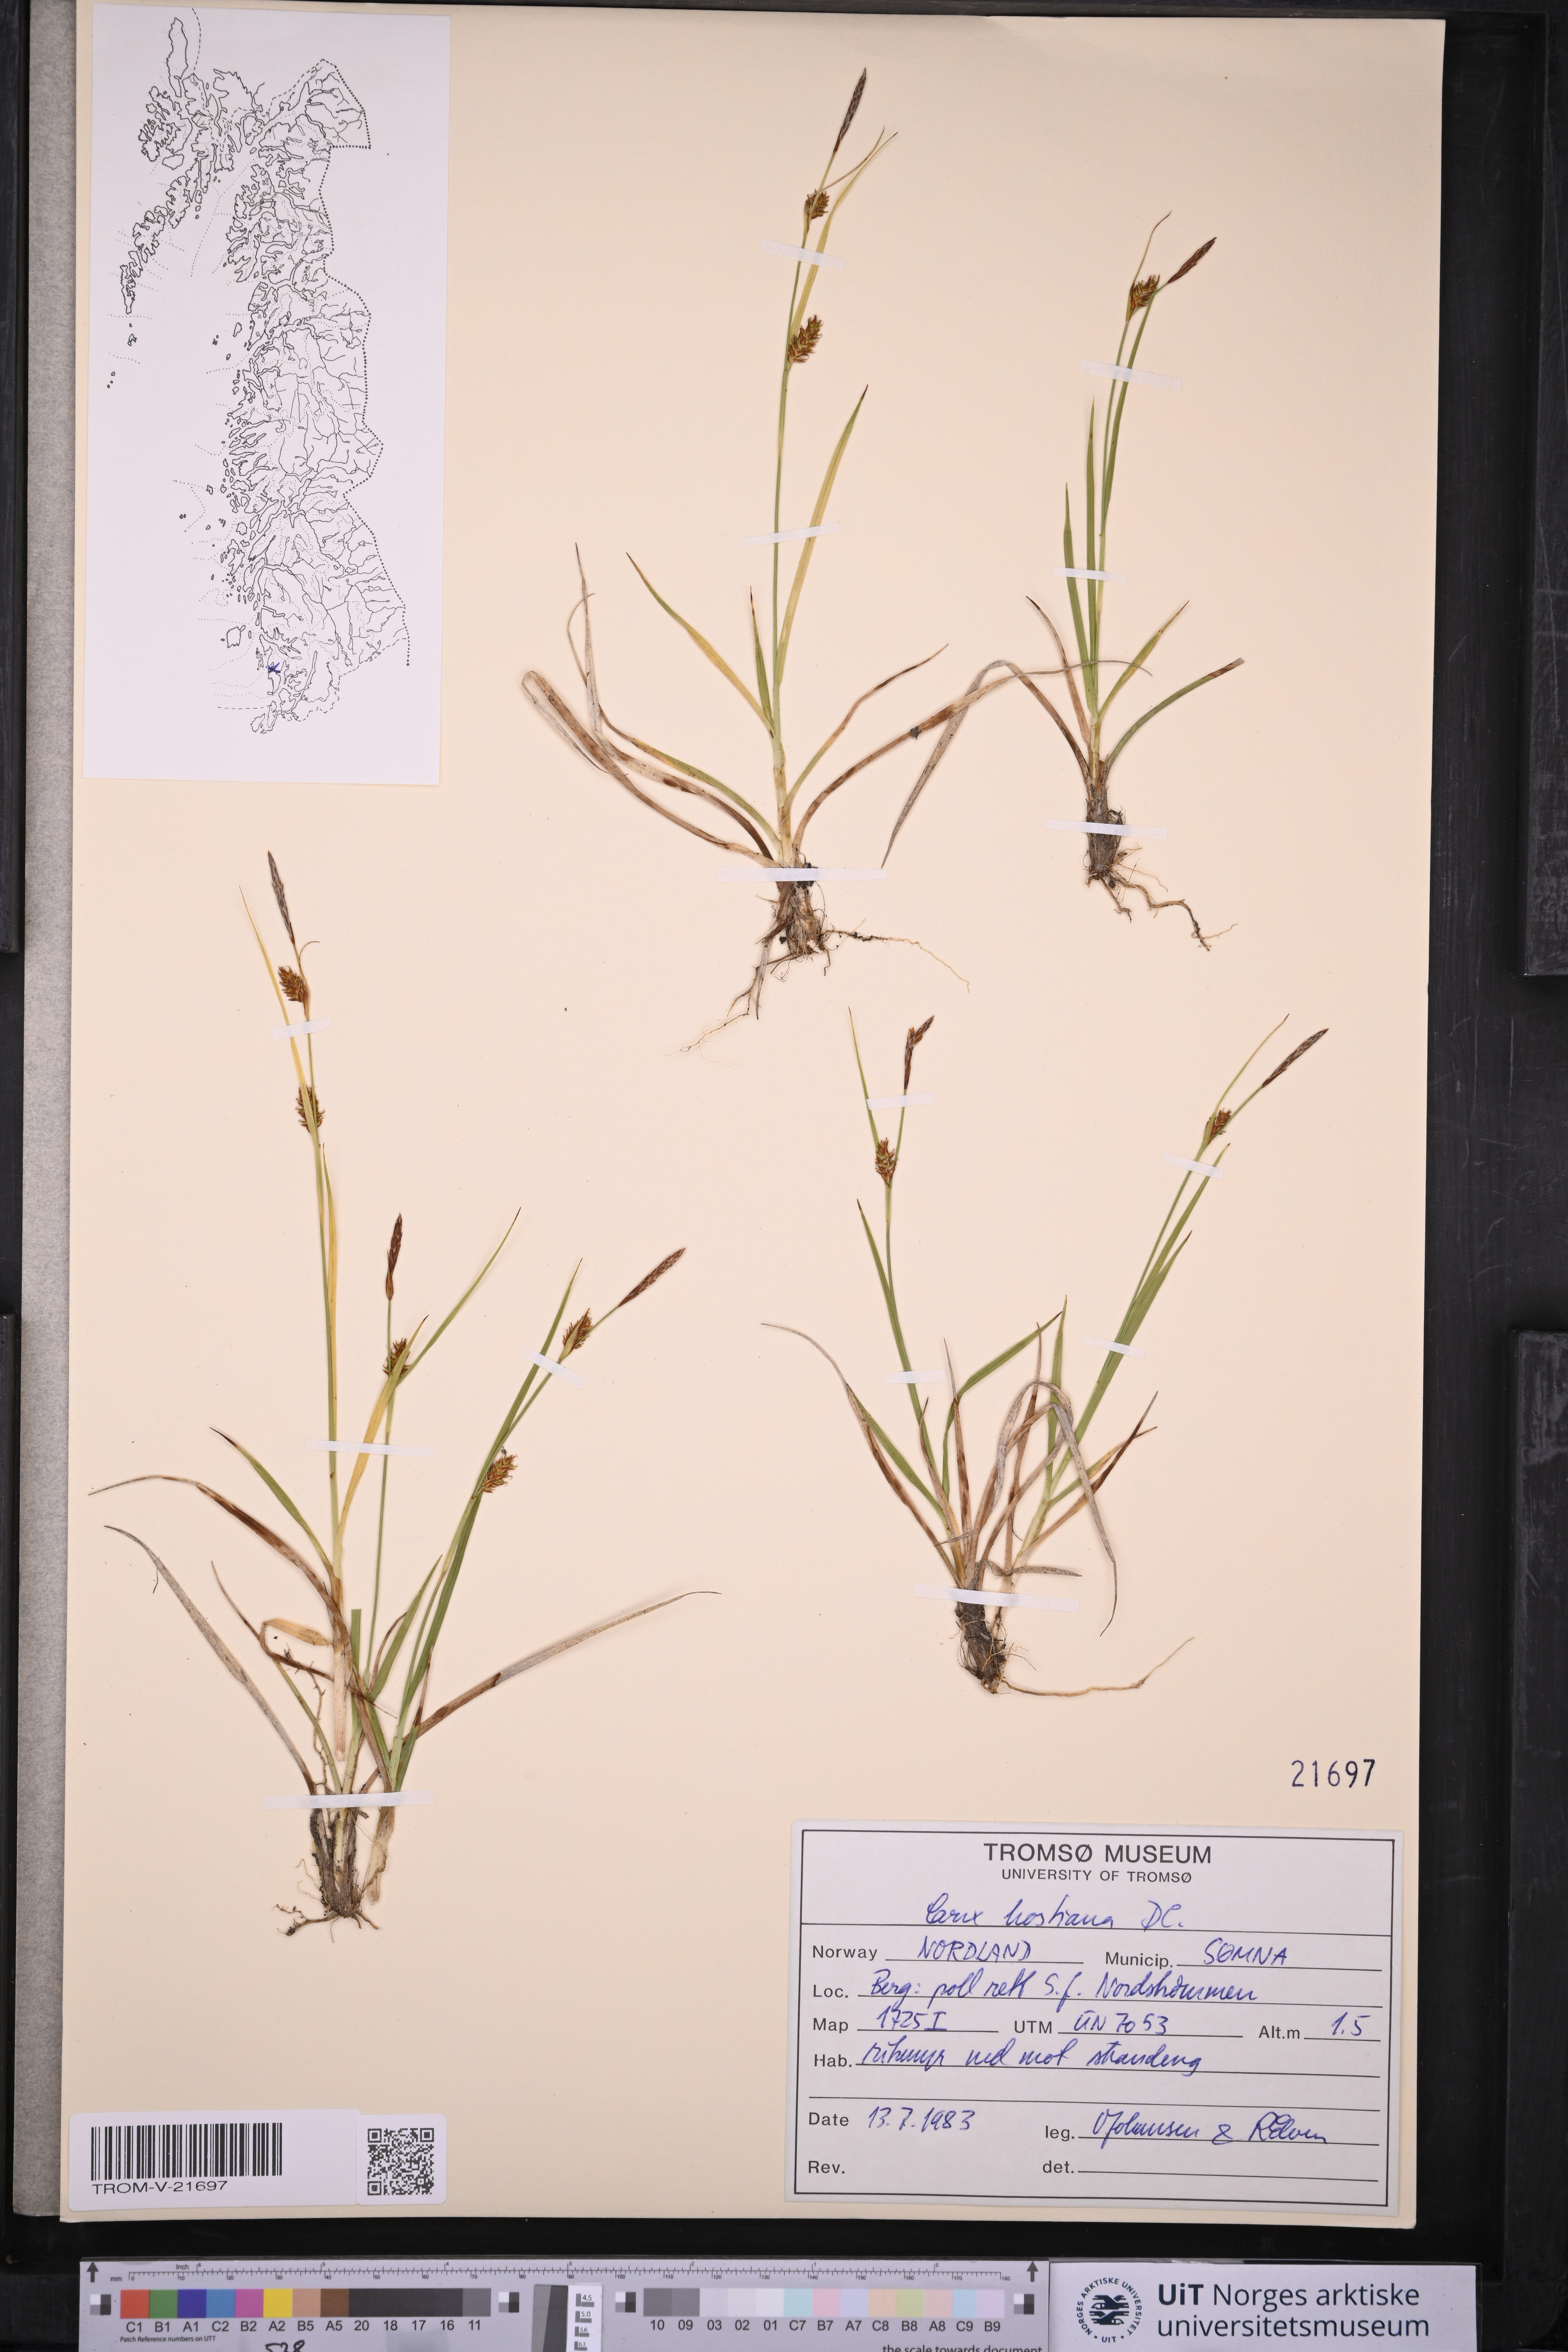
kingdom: Plantae
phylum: Tracheophyta
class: Liliopsida
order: Poales
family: Cyperaceae
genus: Carex
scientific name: Carex hostiana
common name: Tawny sedge
